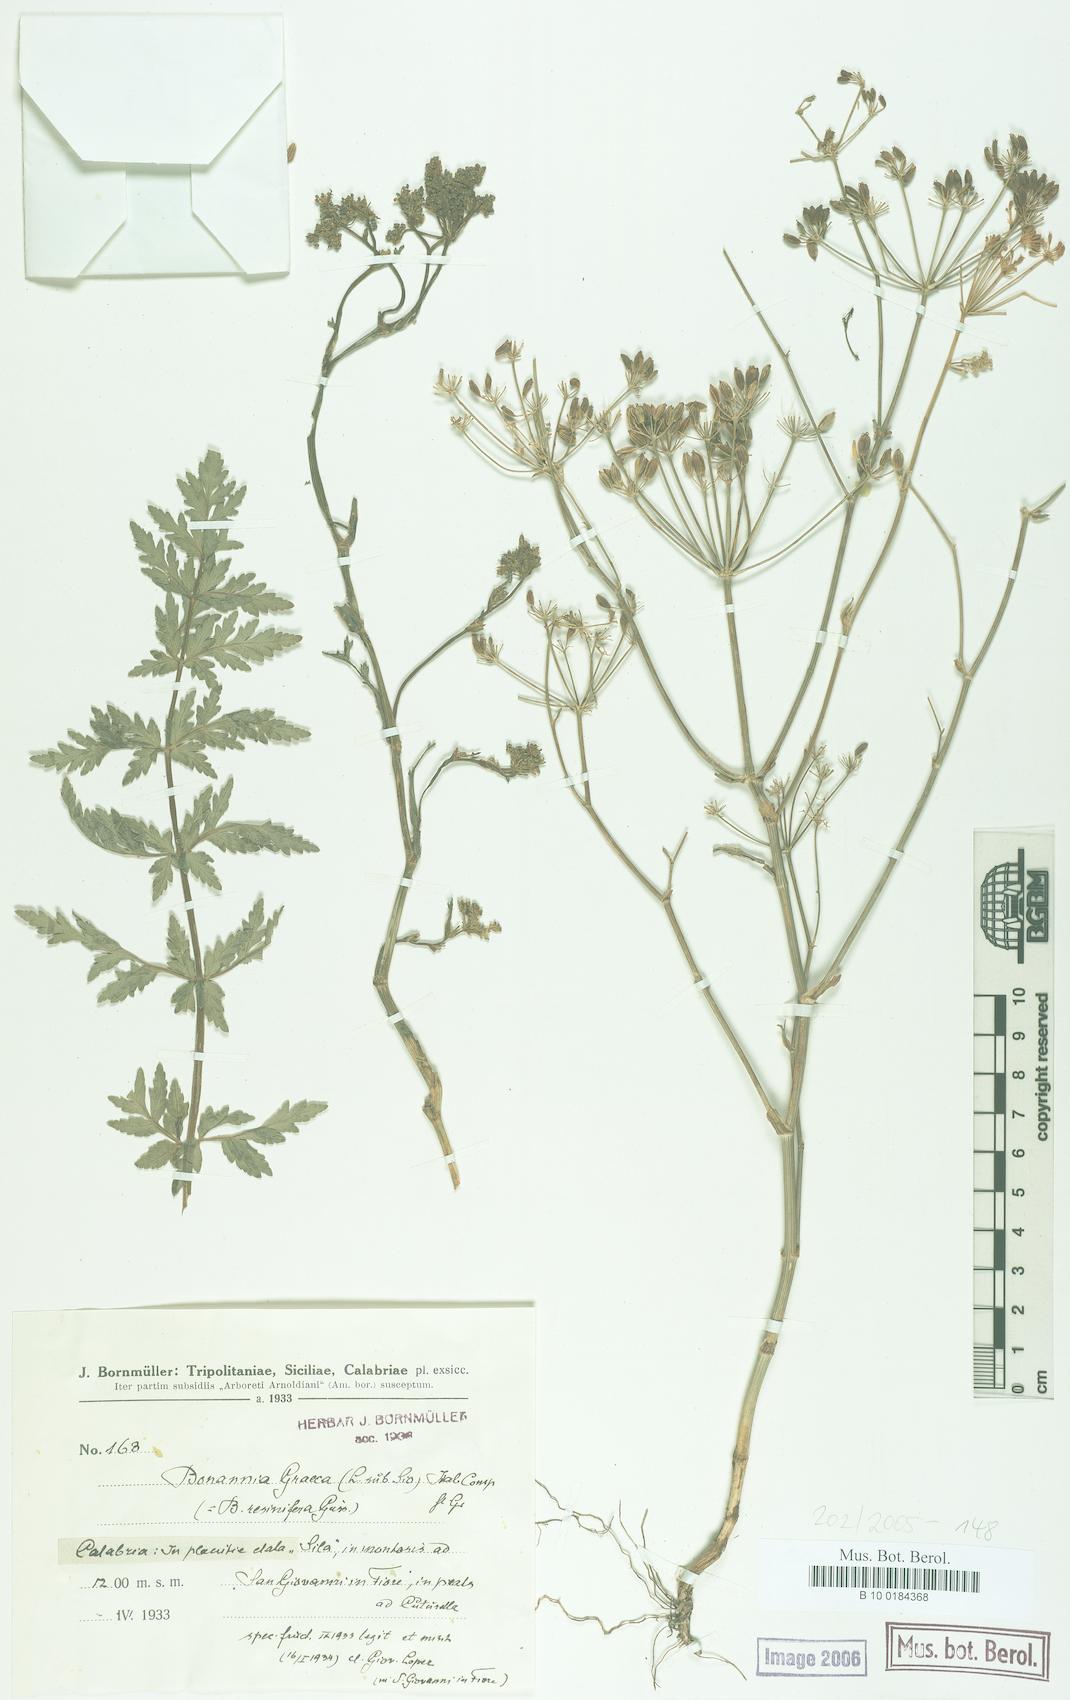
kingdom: Plantae
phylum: Tracheophyta
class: Magnoliopsida
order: Apiales
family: Apiaceae
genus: Bonannia
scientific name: Bonannia graeca
